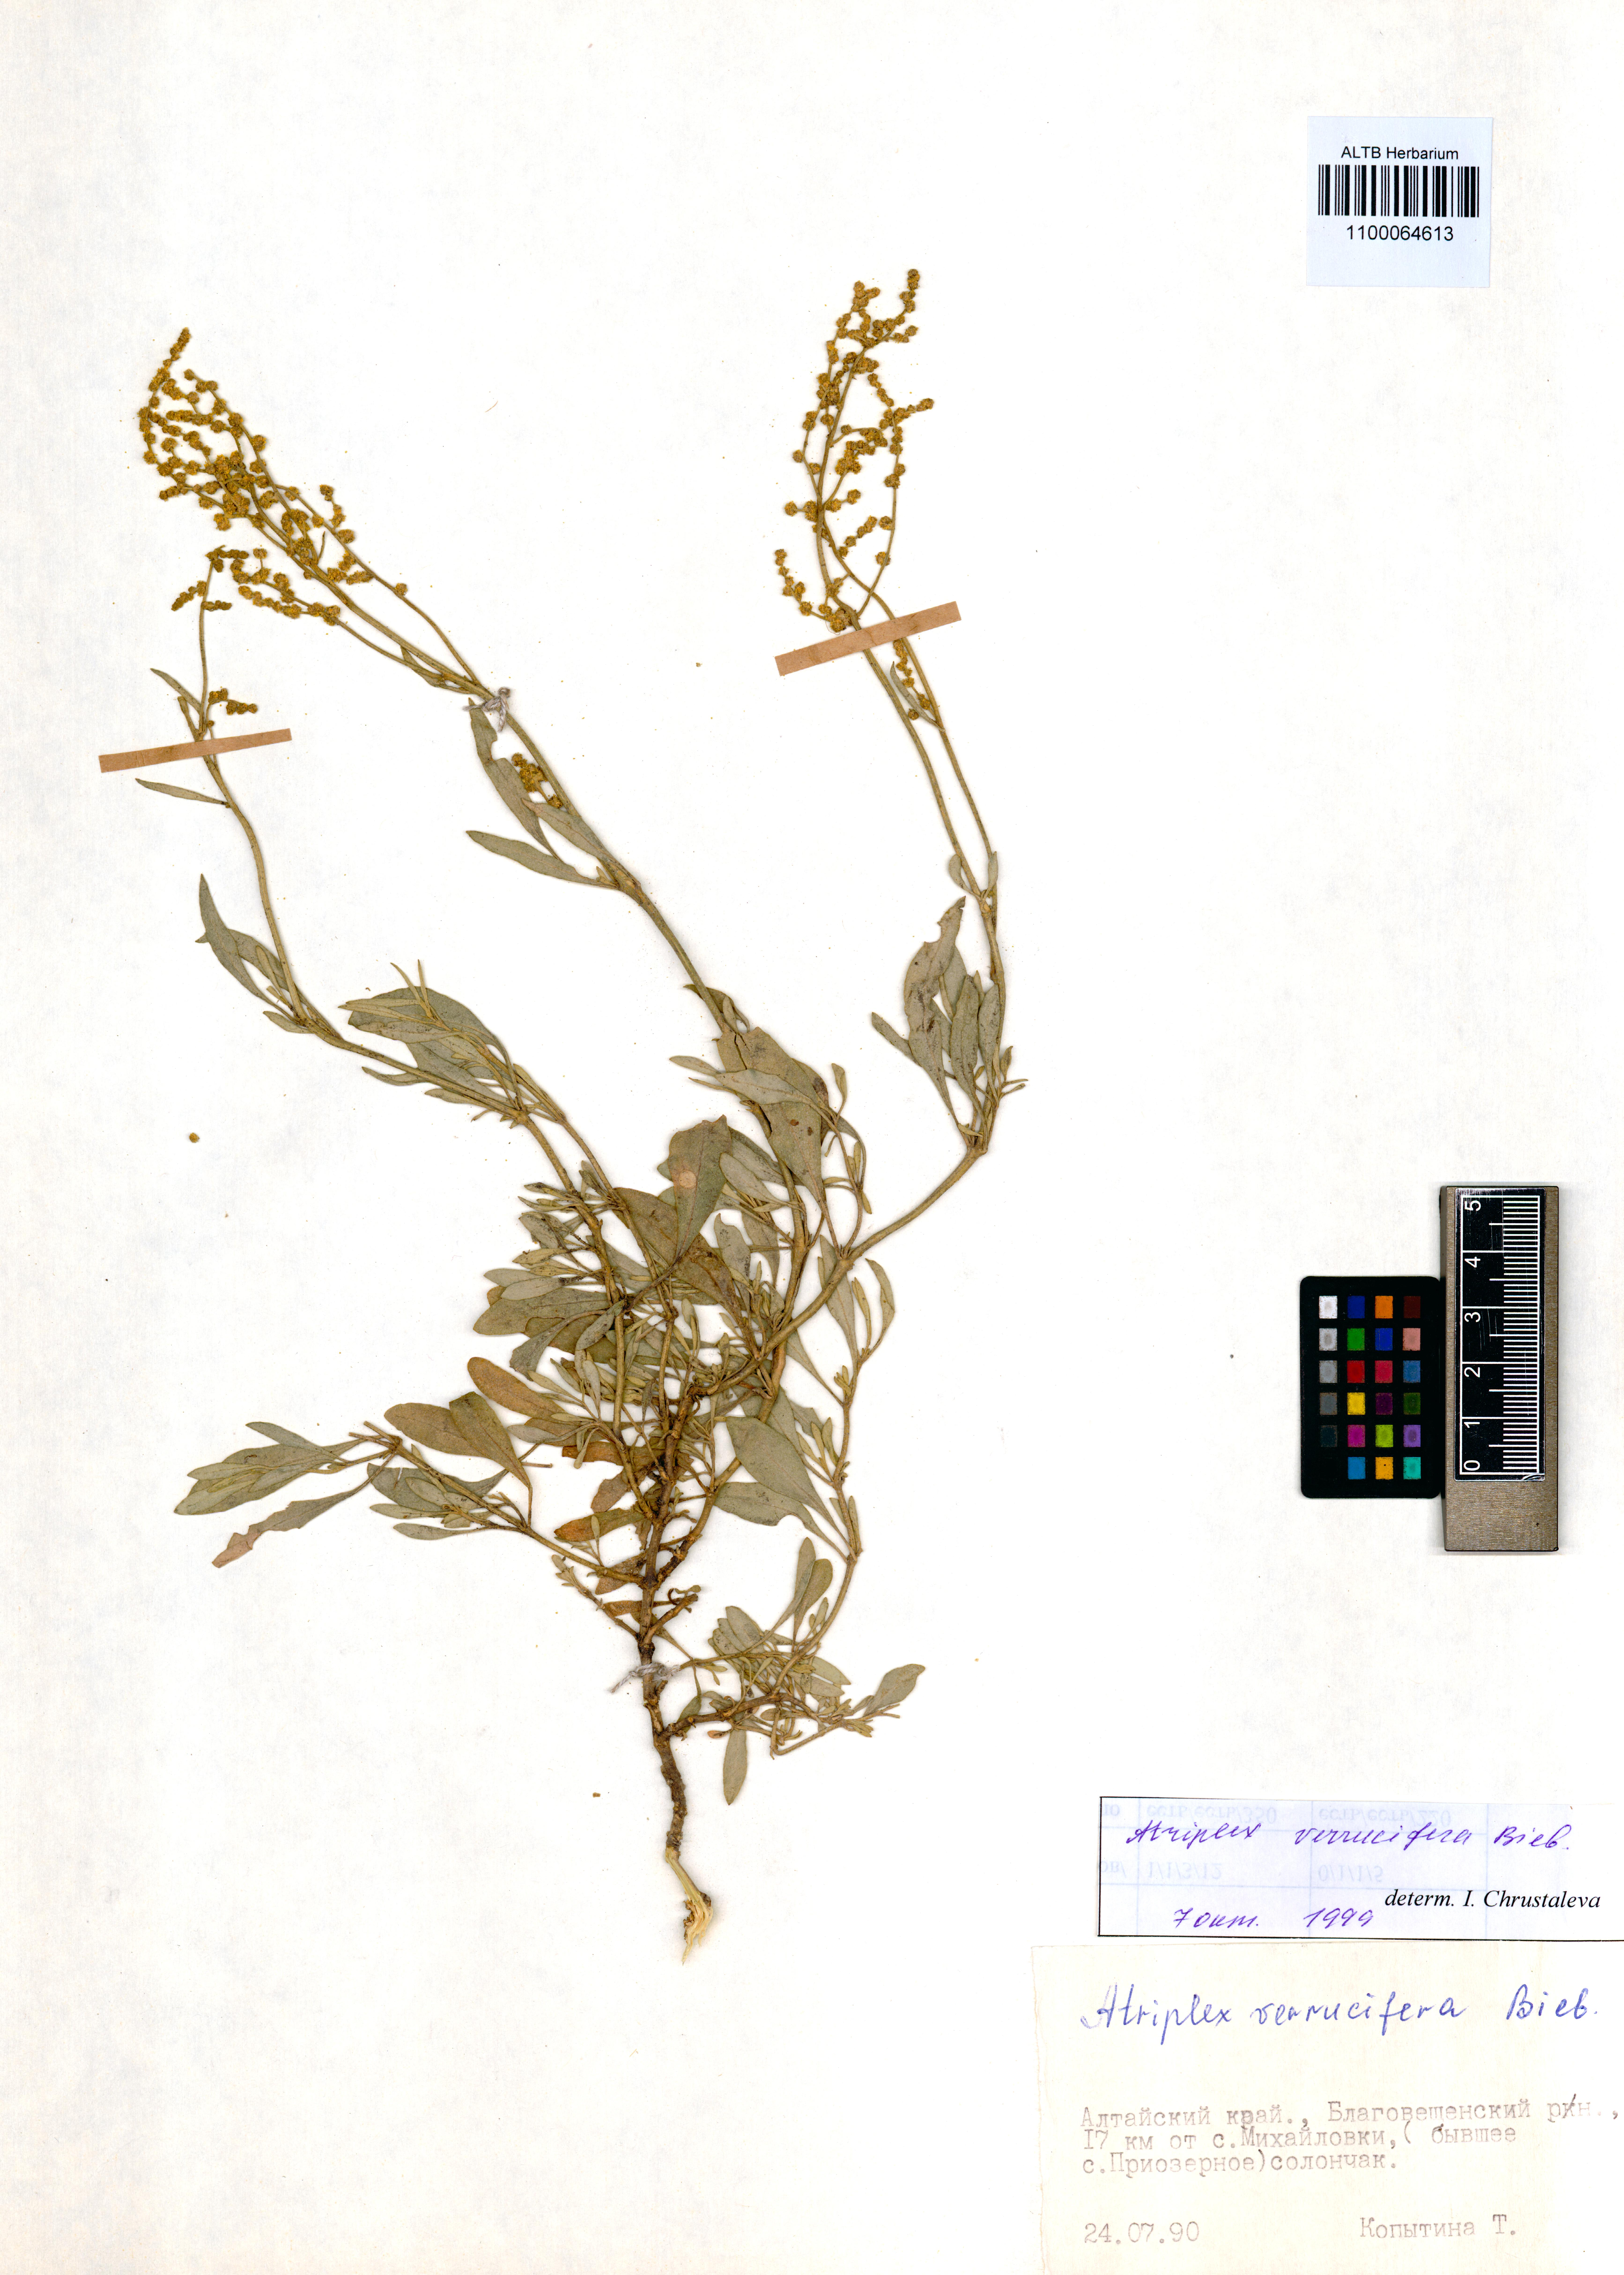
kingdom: Plantae
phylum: Tracheophyta
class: Magnoliopsida
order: Caryophyllales
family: Amaranthaceae
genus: Halimione
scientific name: Halimione verrucifera
